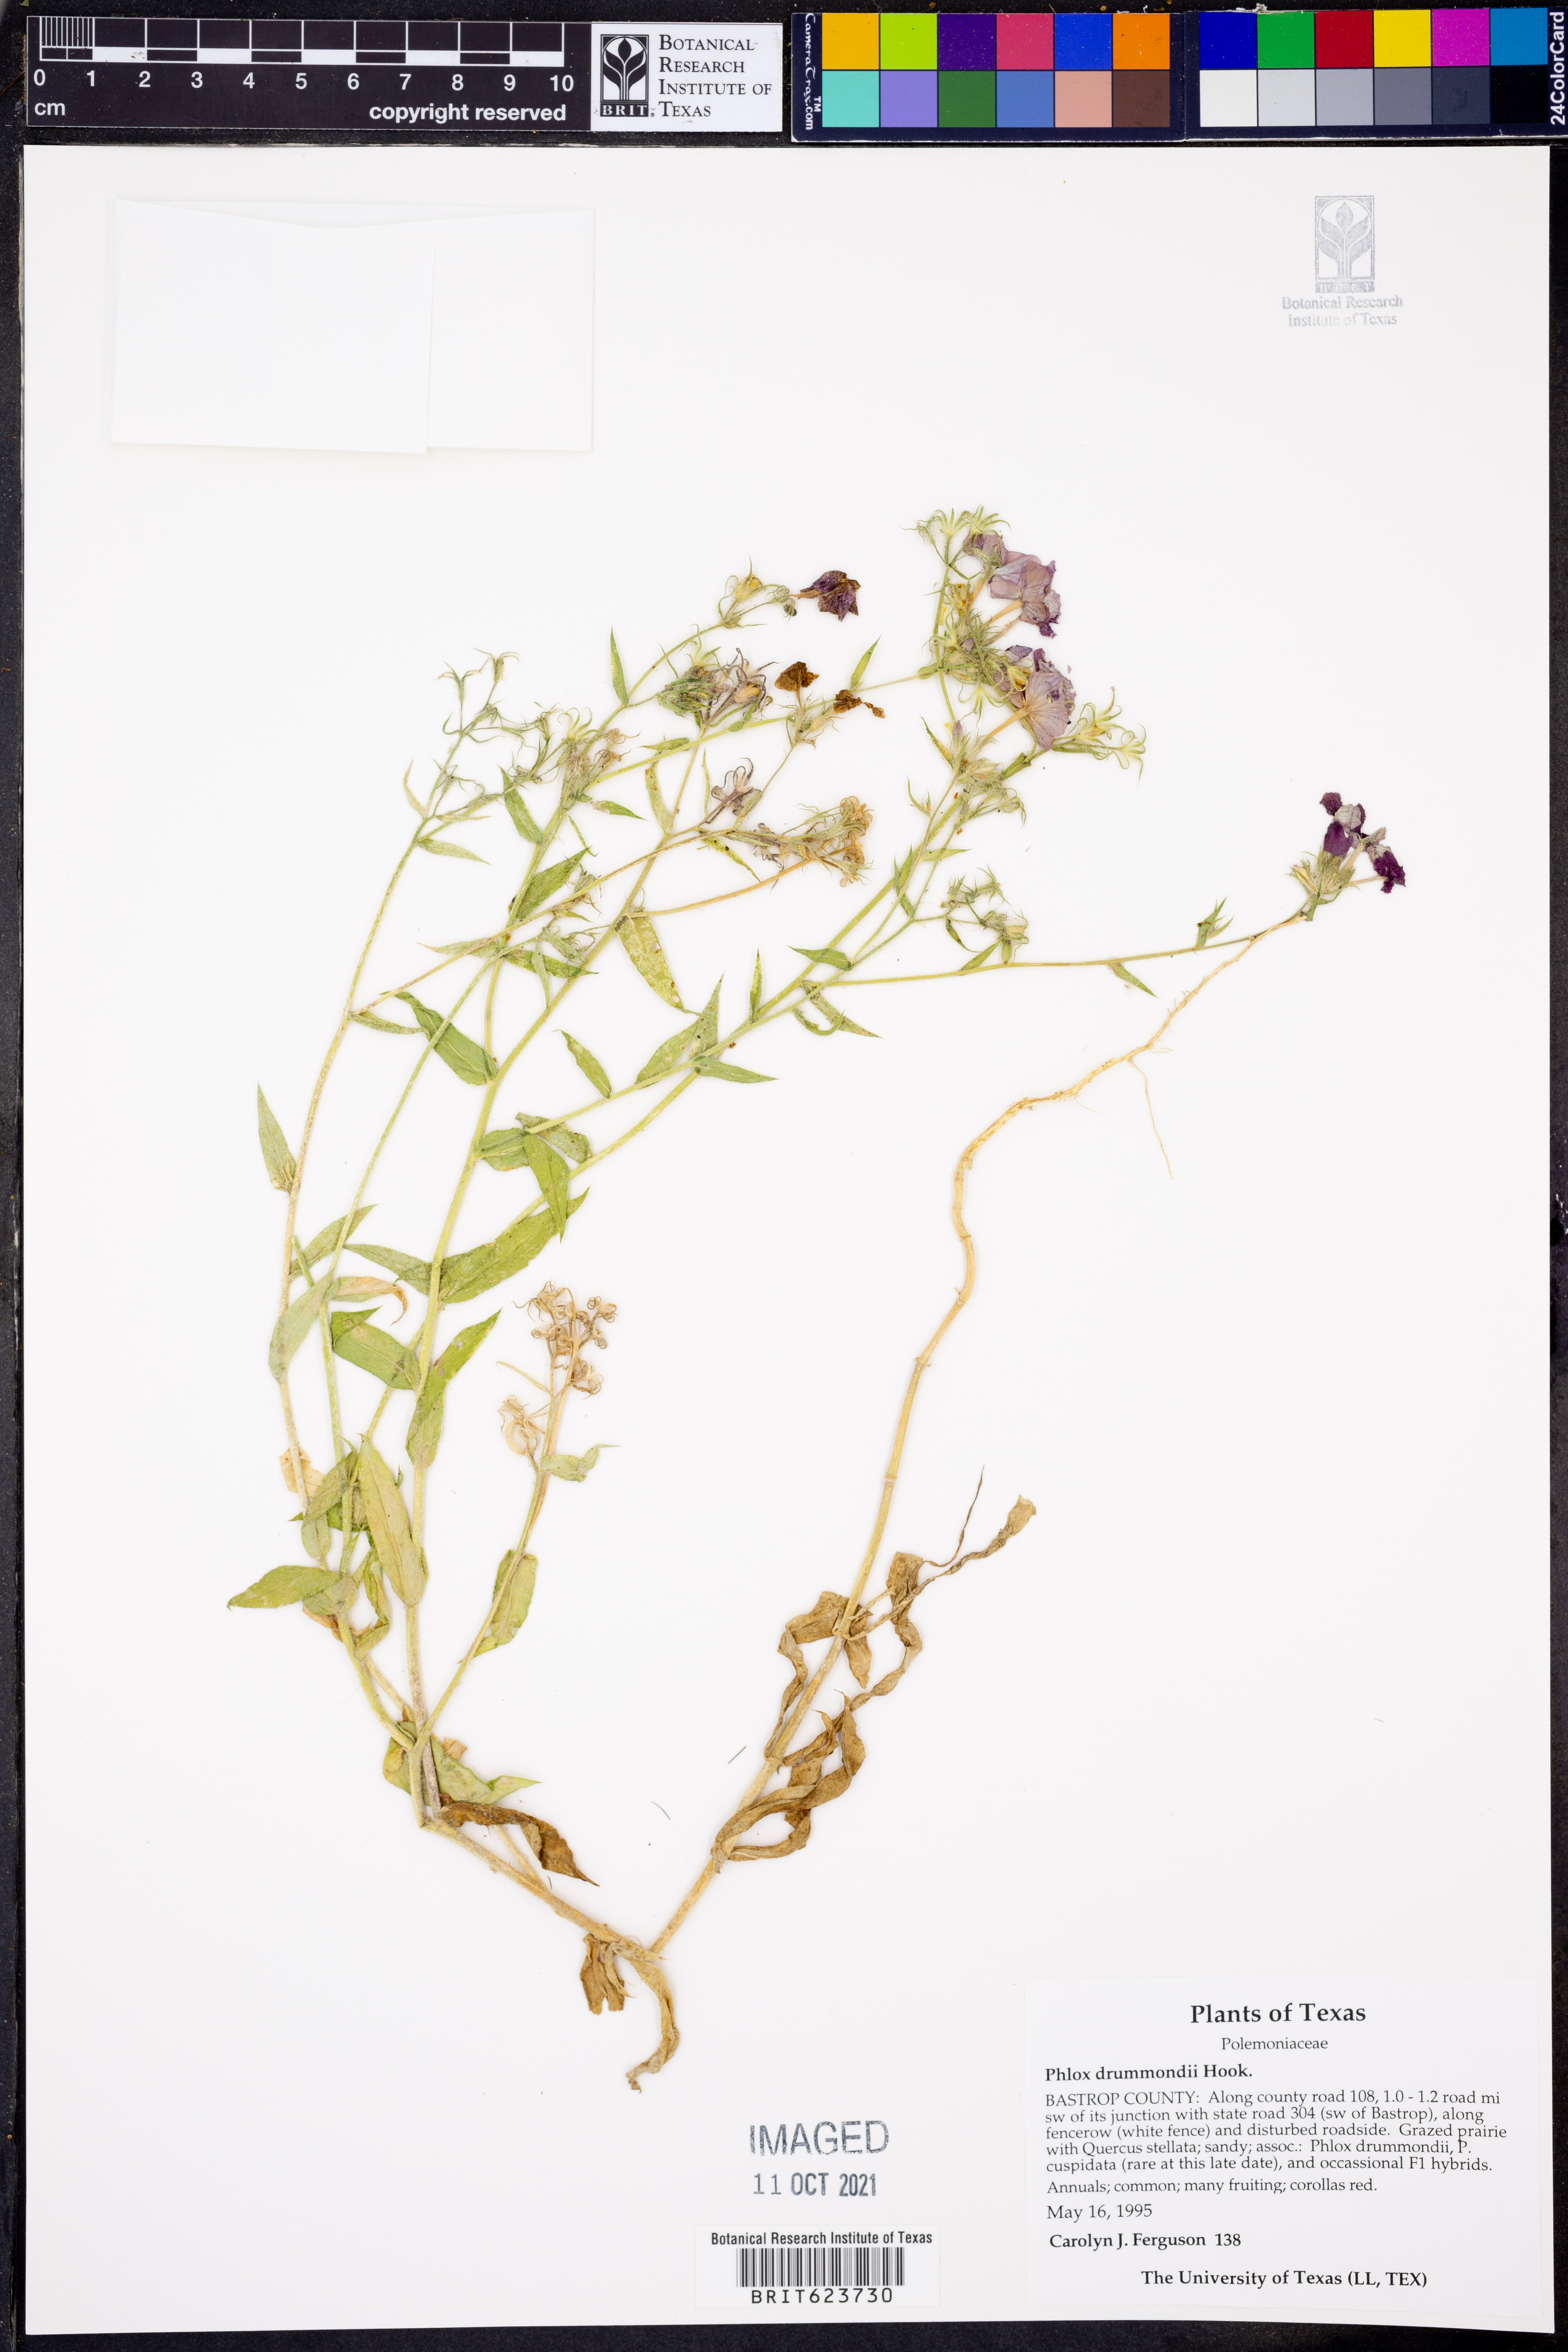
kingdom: Plantae
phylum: Tracheophyta
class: Magnoliopsida
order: Ericales
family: Polemoniaceae
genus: Phlox
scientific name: Phlox drummondii
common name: Drummond's phlox
